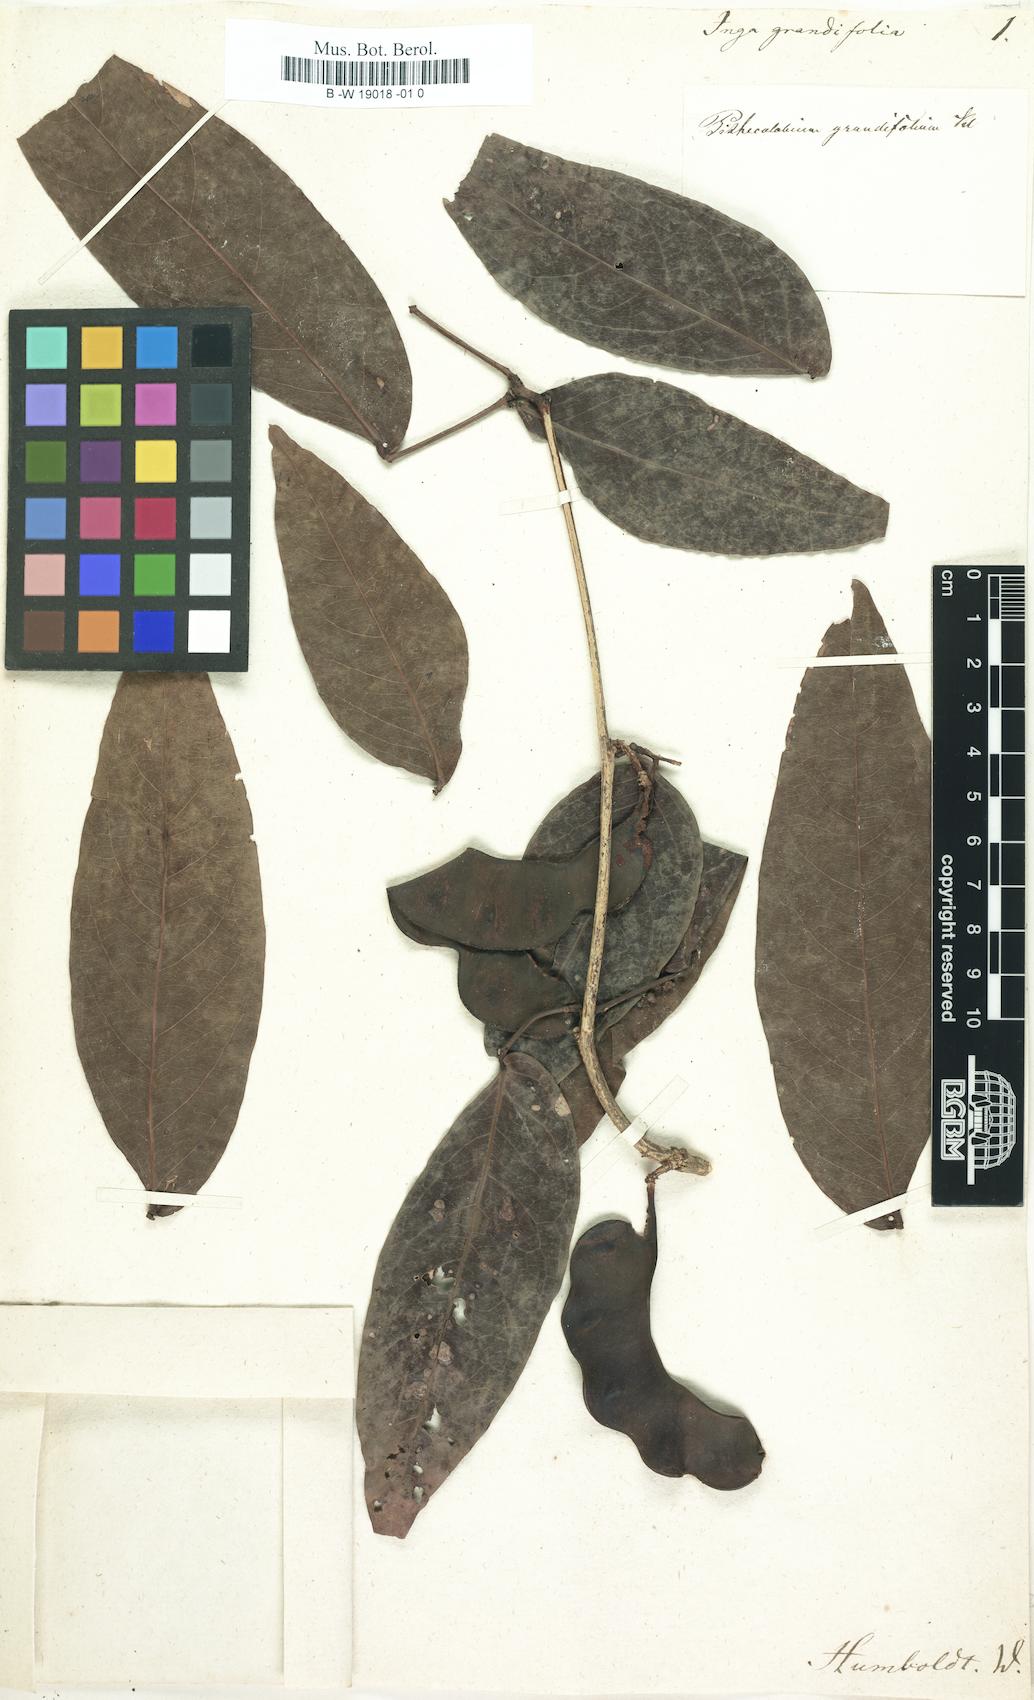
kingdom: Plantae
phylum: Tracheophyta
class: Magnoliopsida
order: Fabales
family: Fabaceae
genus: Inga
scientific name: Inga sapindoides
